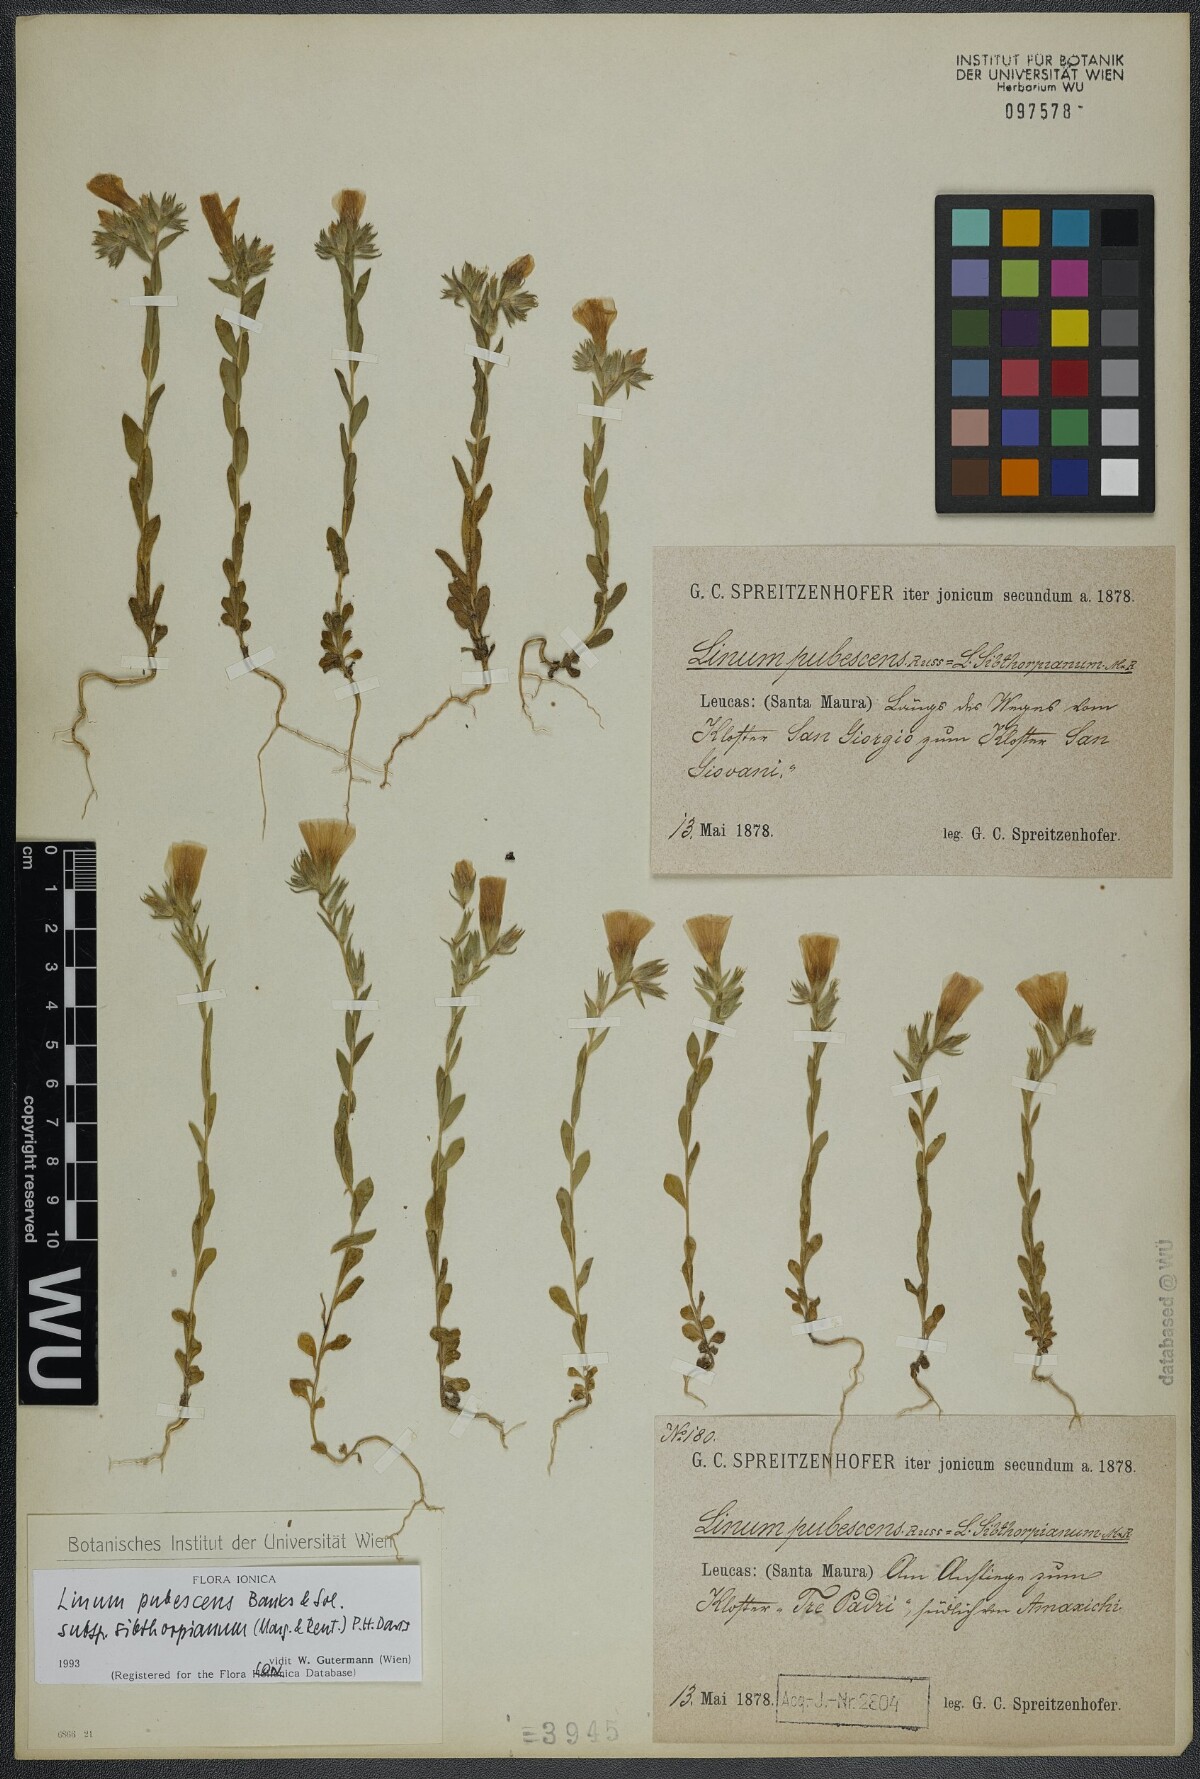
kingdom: Plantae
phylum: Tracheophyta
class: Magnoliopsida
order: Malpighiales
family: Linaceae
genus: Linum
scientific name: Linum pubescens
